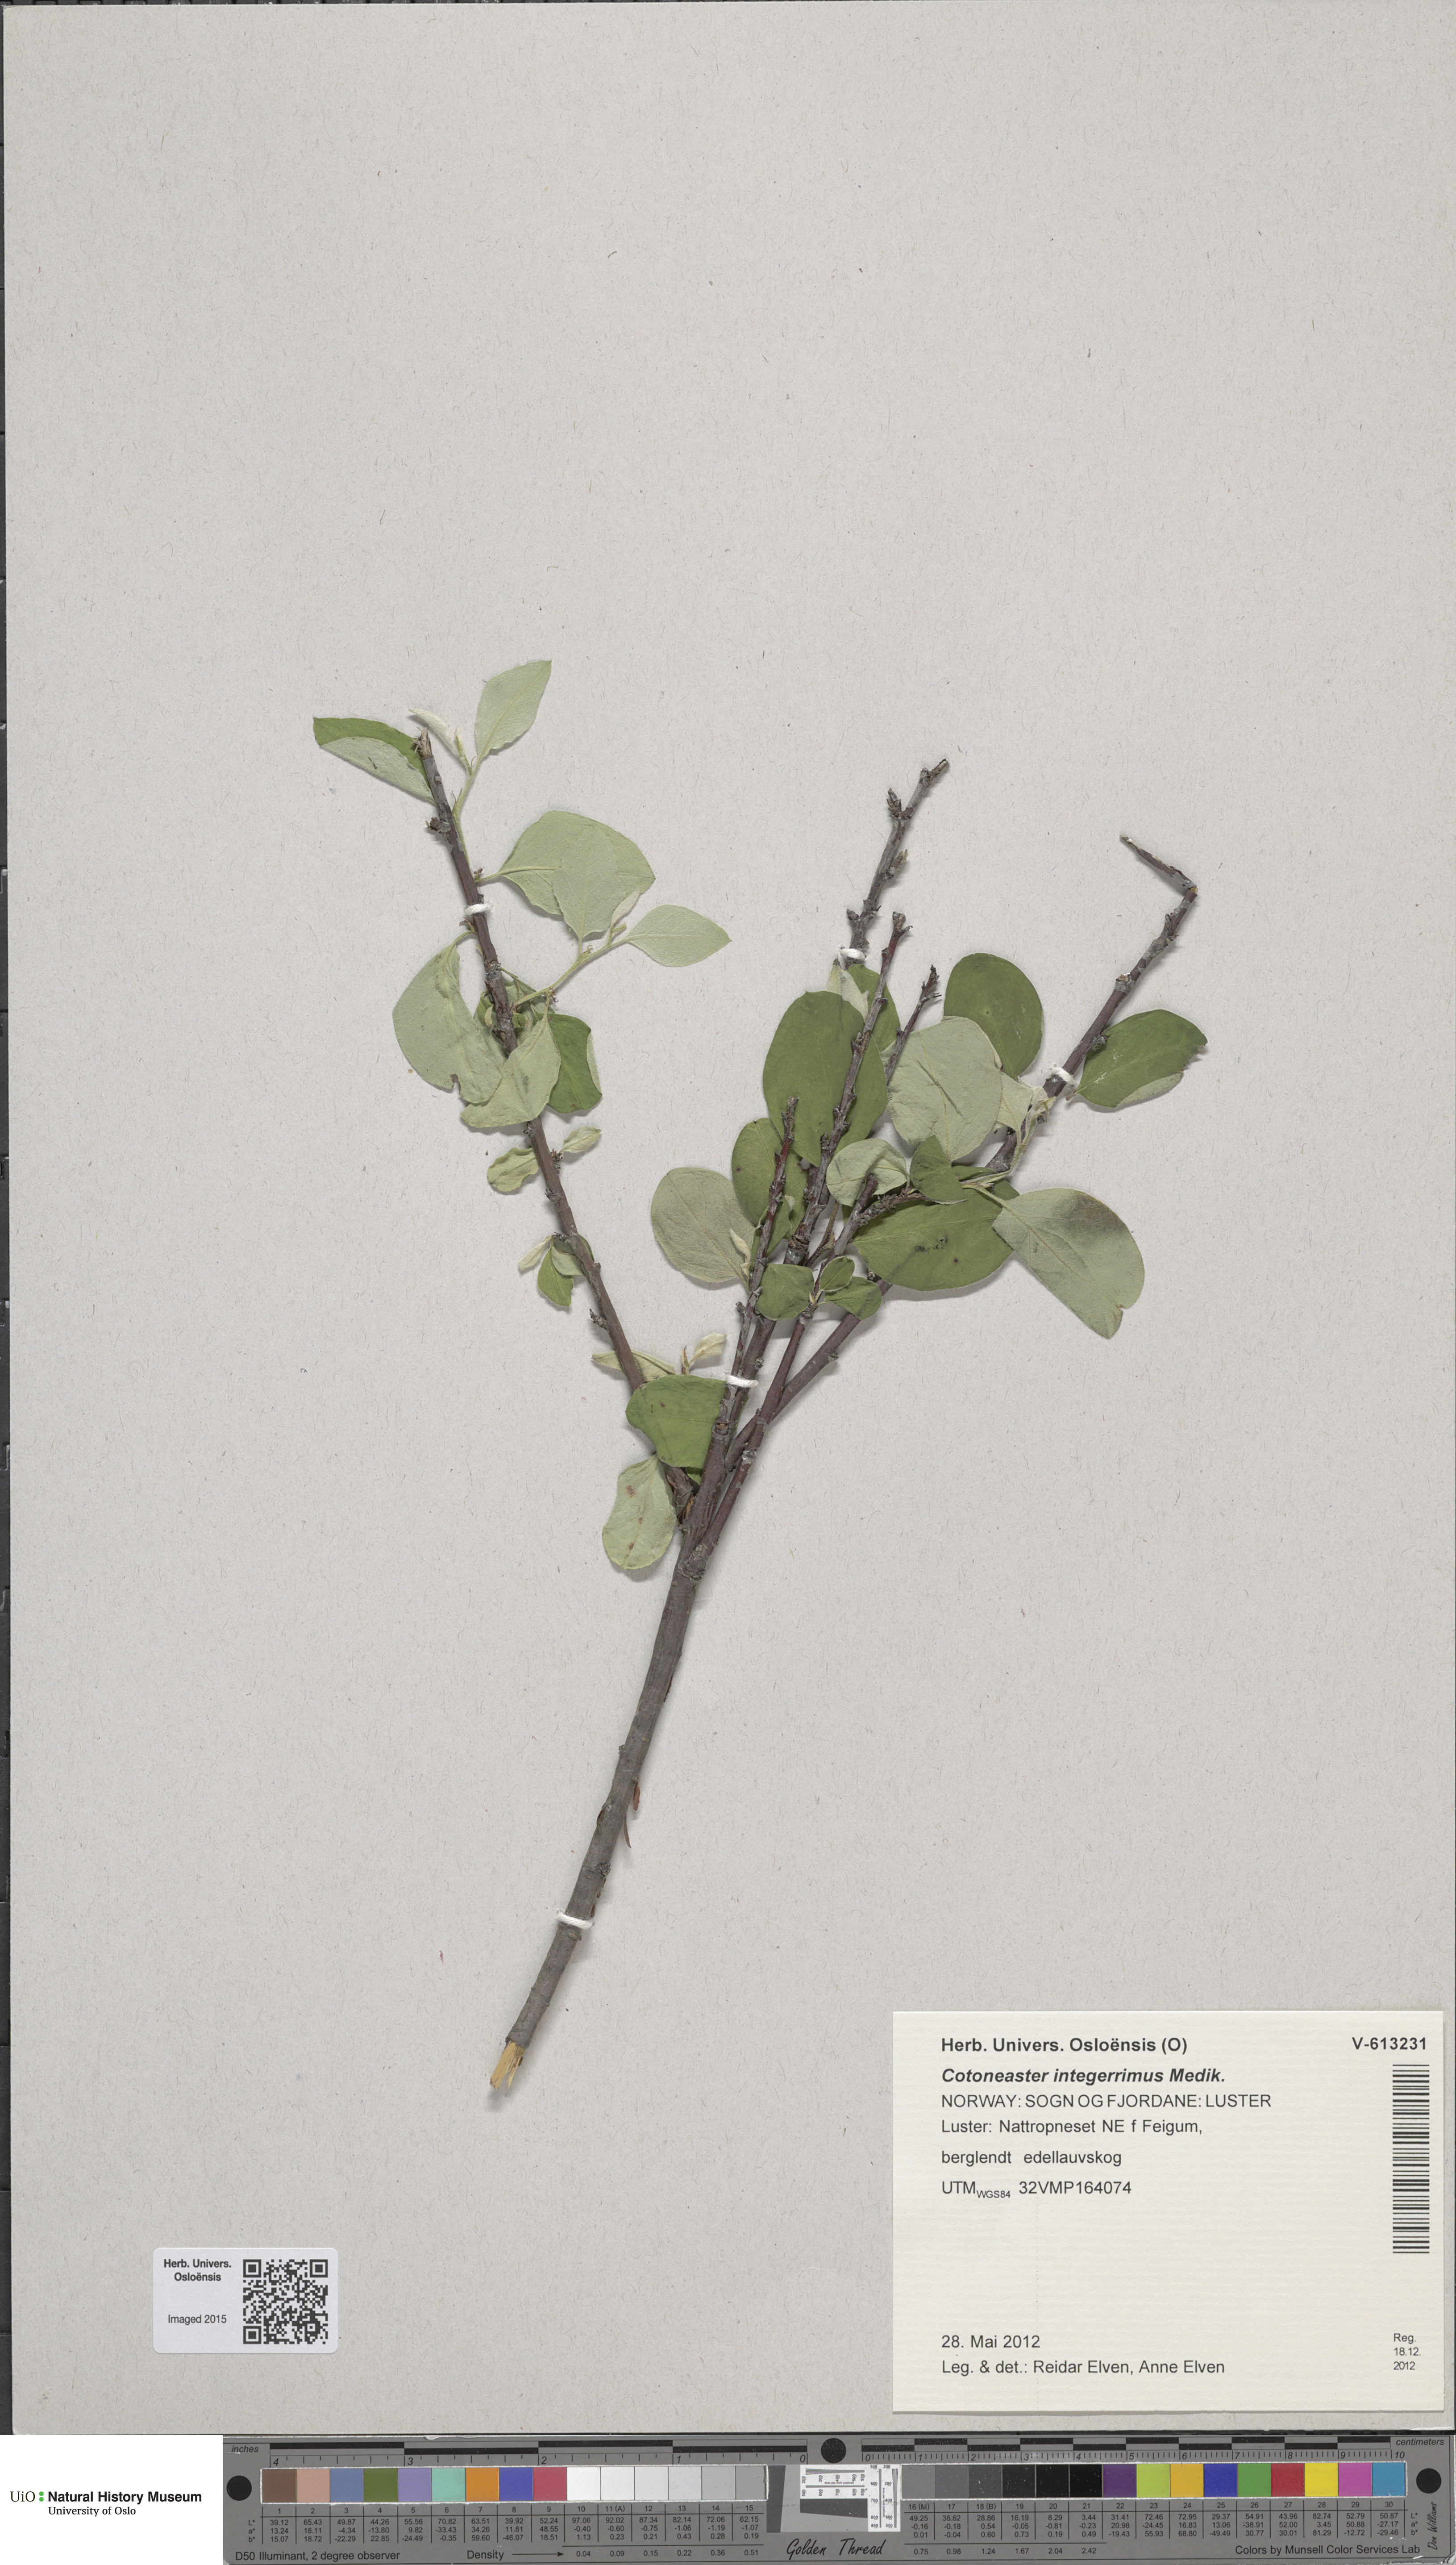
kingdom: Plantae
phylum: Tracheophyta
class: Magnoliopsida
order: Rosales
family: Rosaceae
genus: Cotoneaster
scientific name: Cotoneaster integerrimus
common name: Wild cotoneaster
